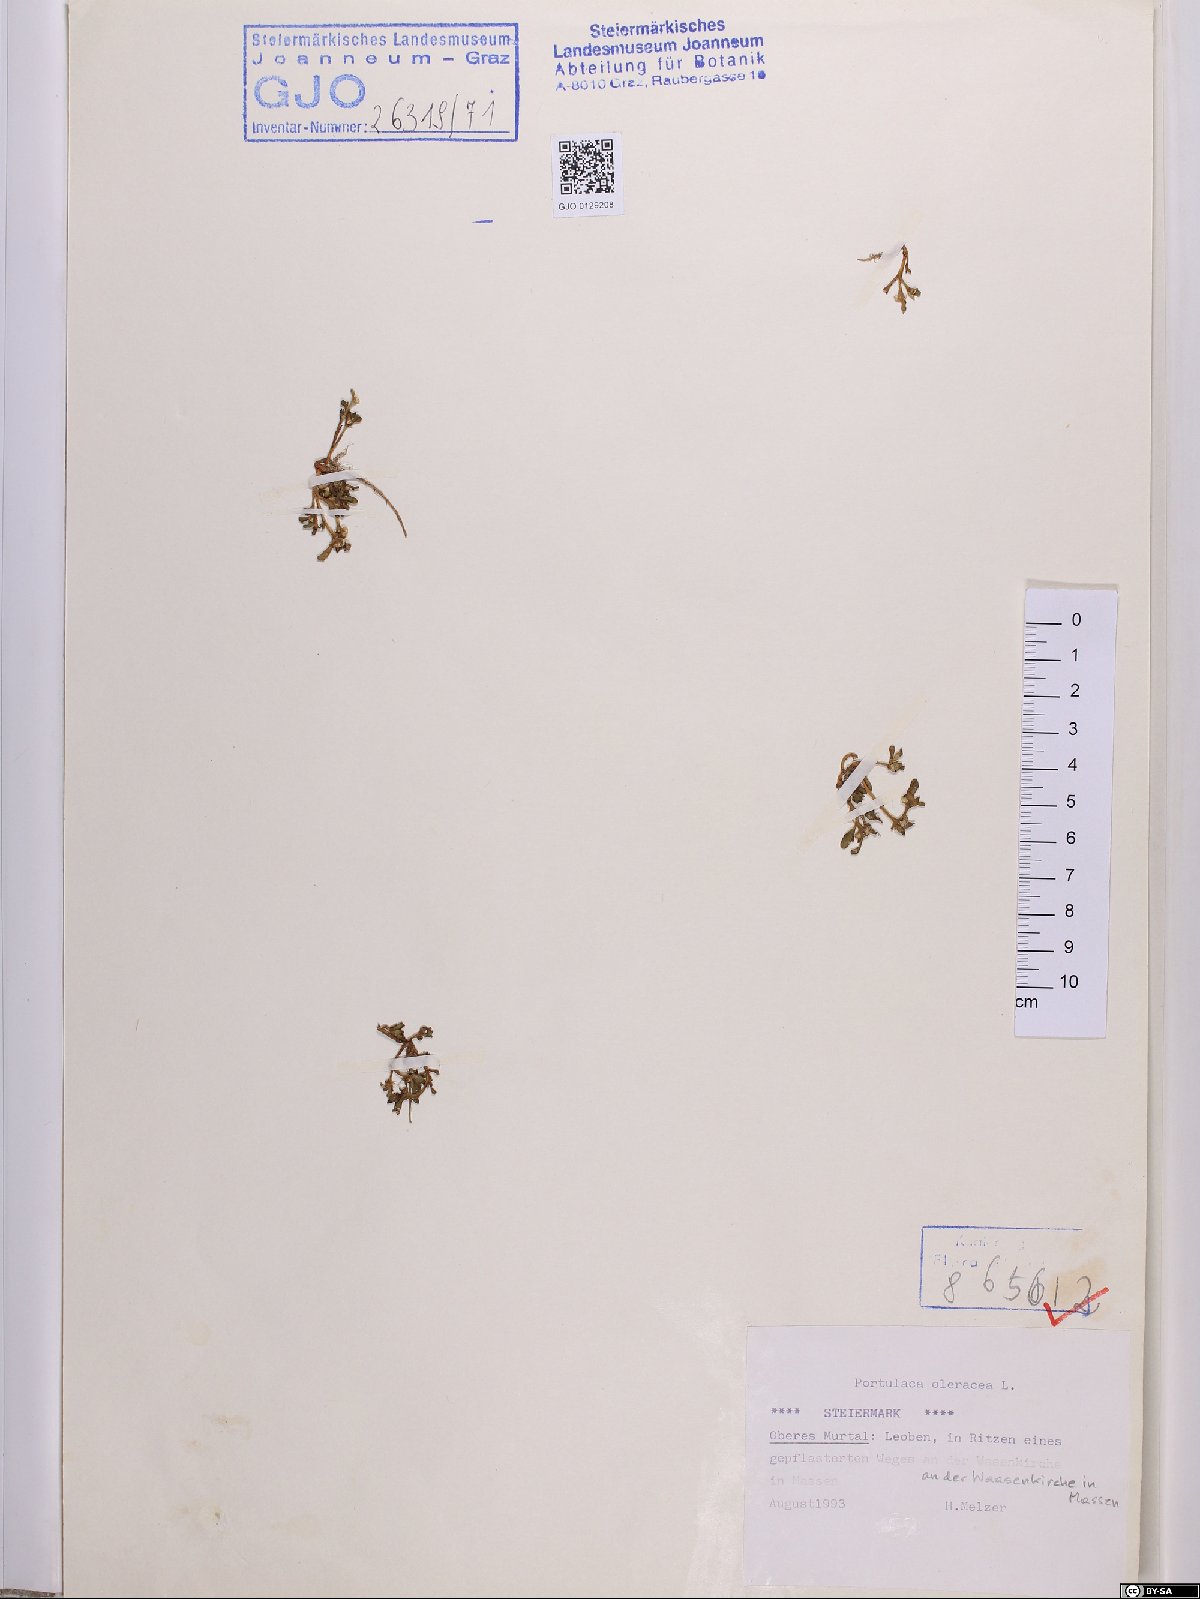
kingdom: Plantae
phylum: Tracheophyta
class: Magnoliopsida
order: Caryophyllales
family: Portulacaceae
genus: Portulaca
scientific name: Portulaca oleracea
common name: Common purslane
